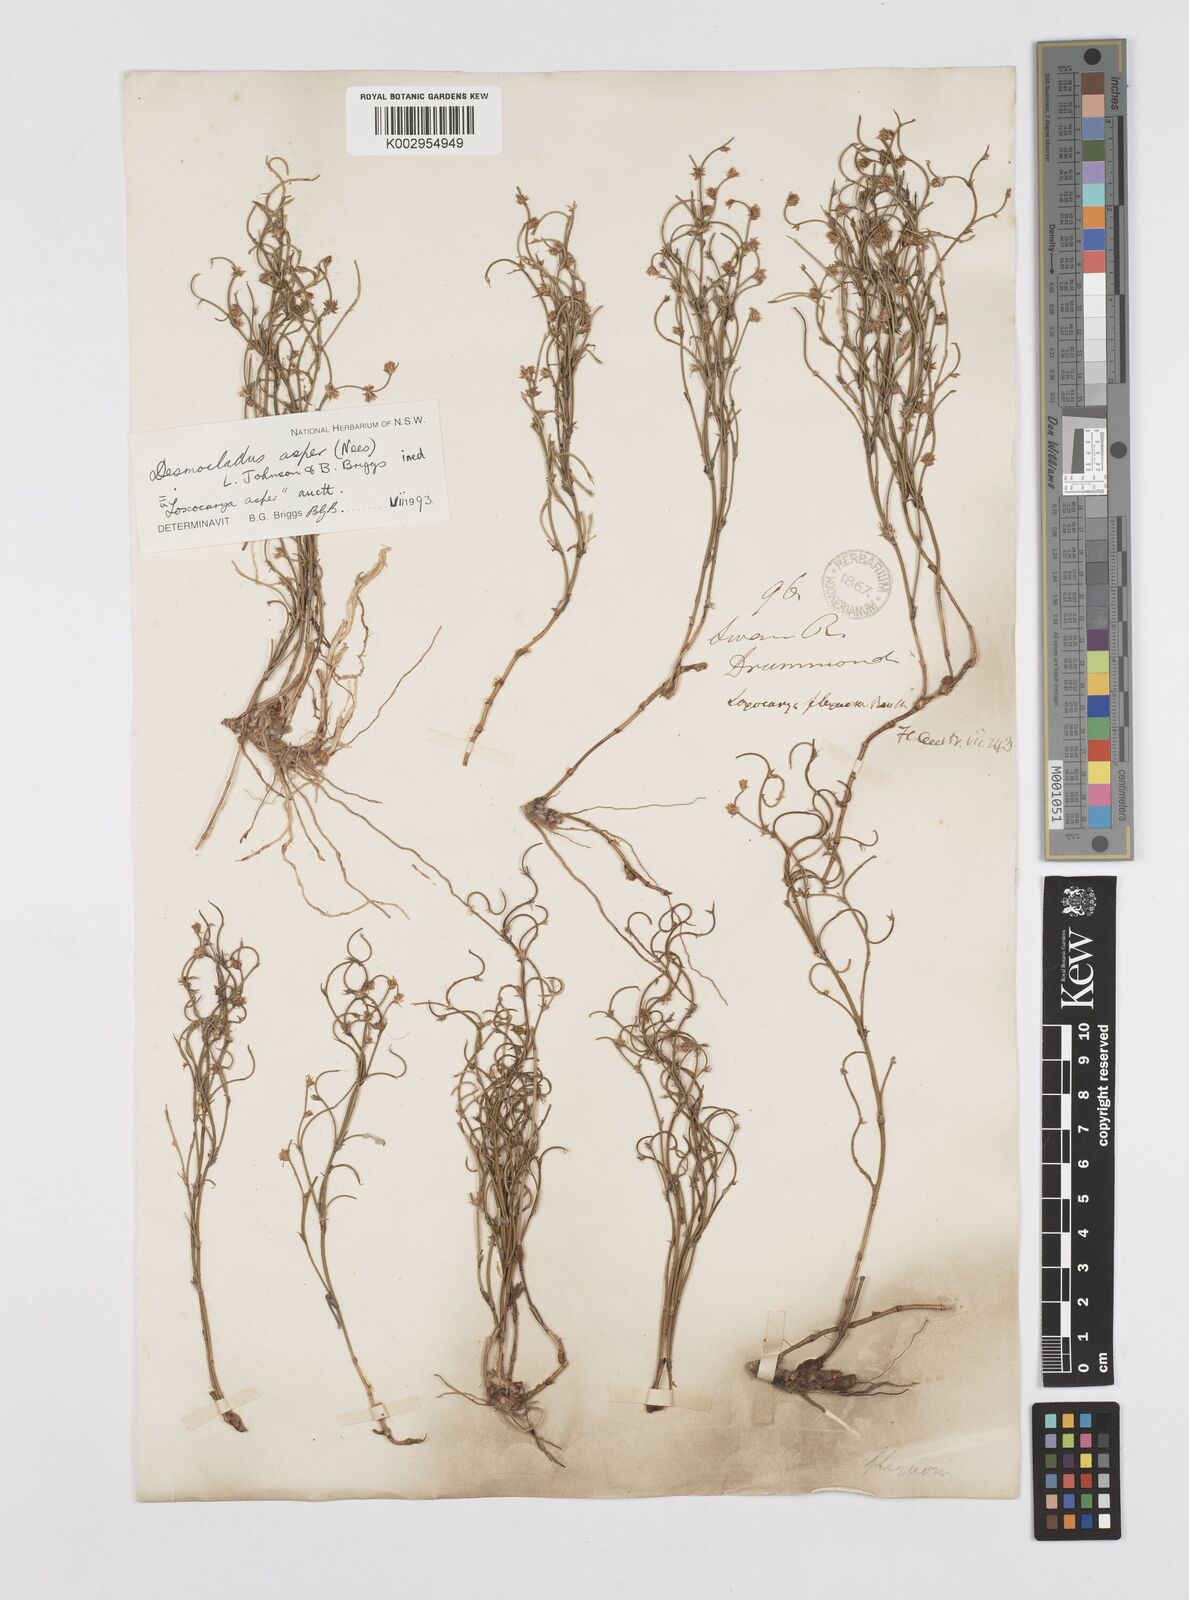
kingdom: Plantae
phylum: Tracheophyta
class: Liliopsida
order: Poales
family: Restionaceae
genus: Desmocladus
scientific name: Desmocladus asper
